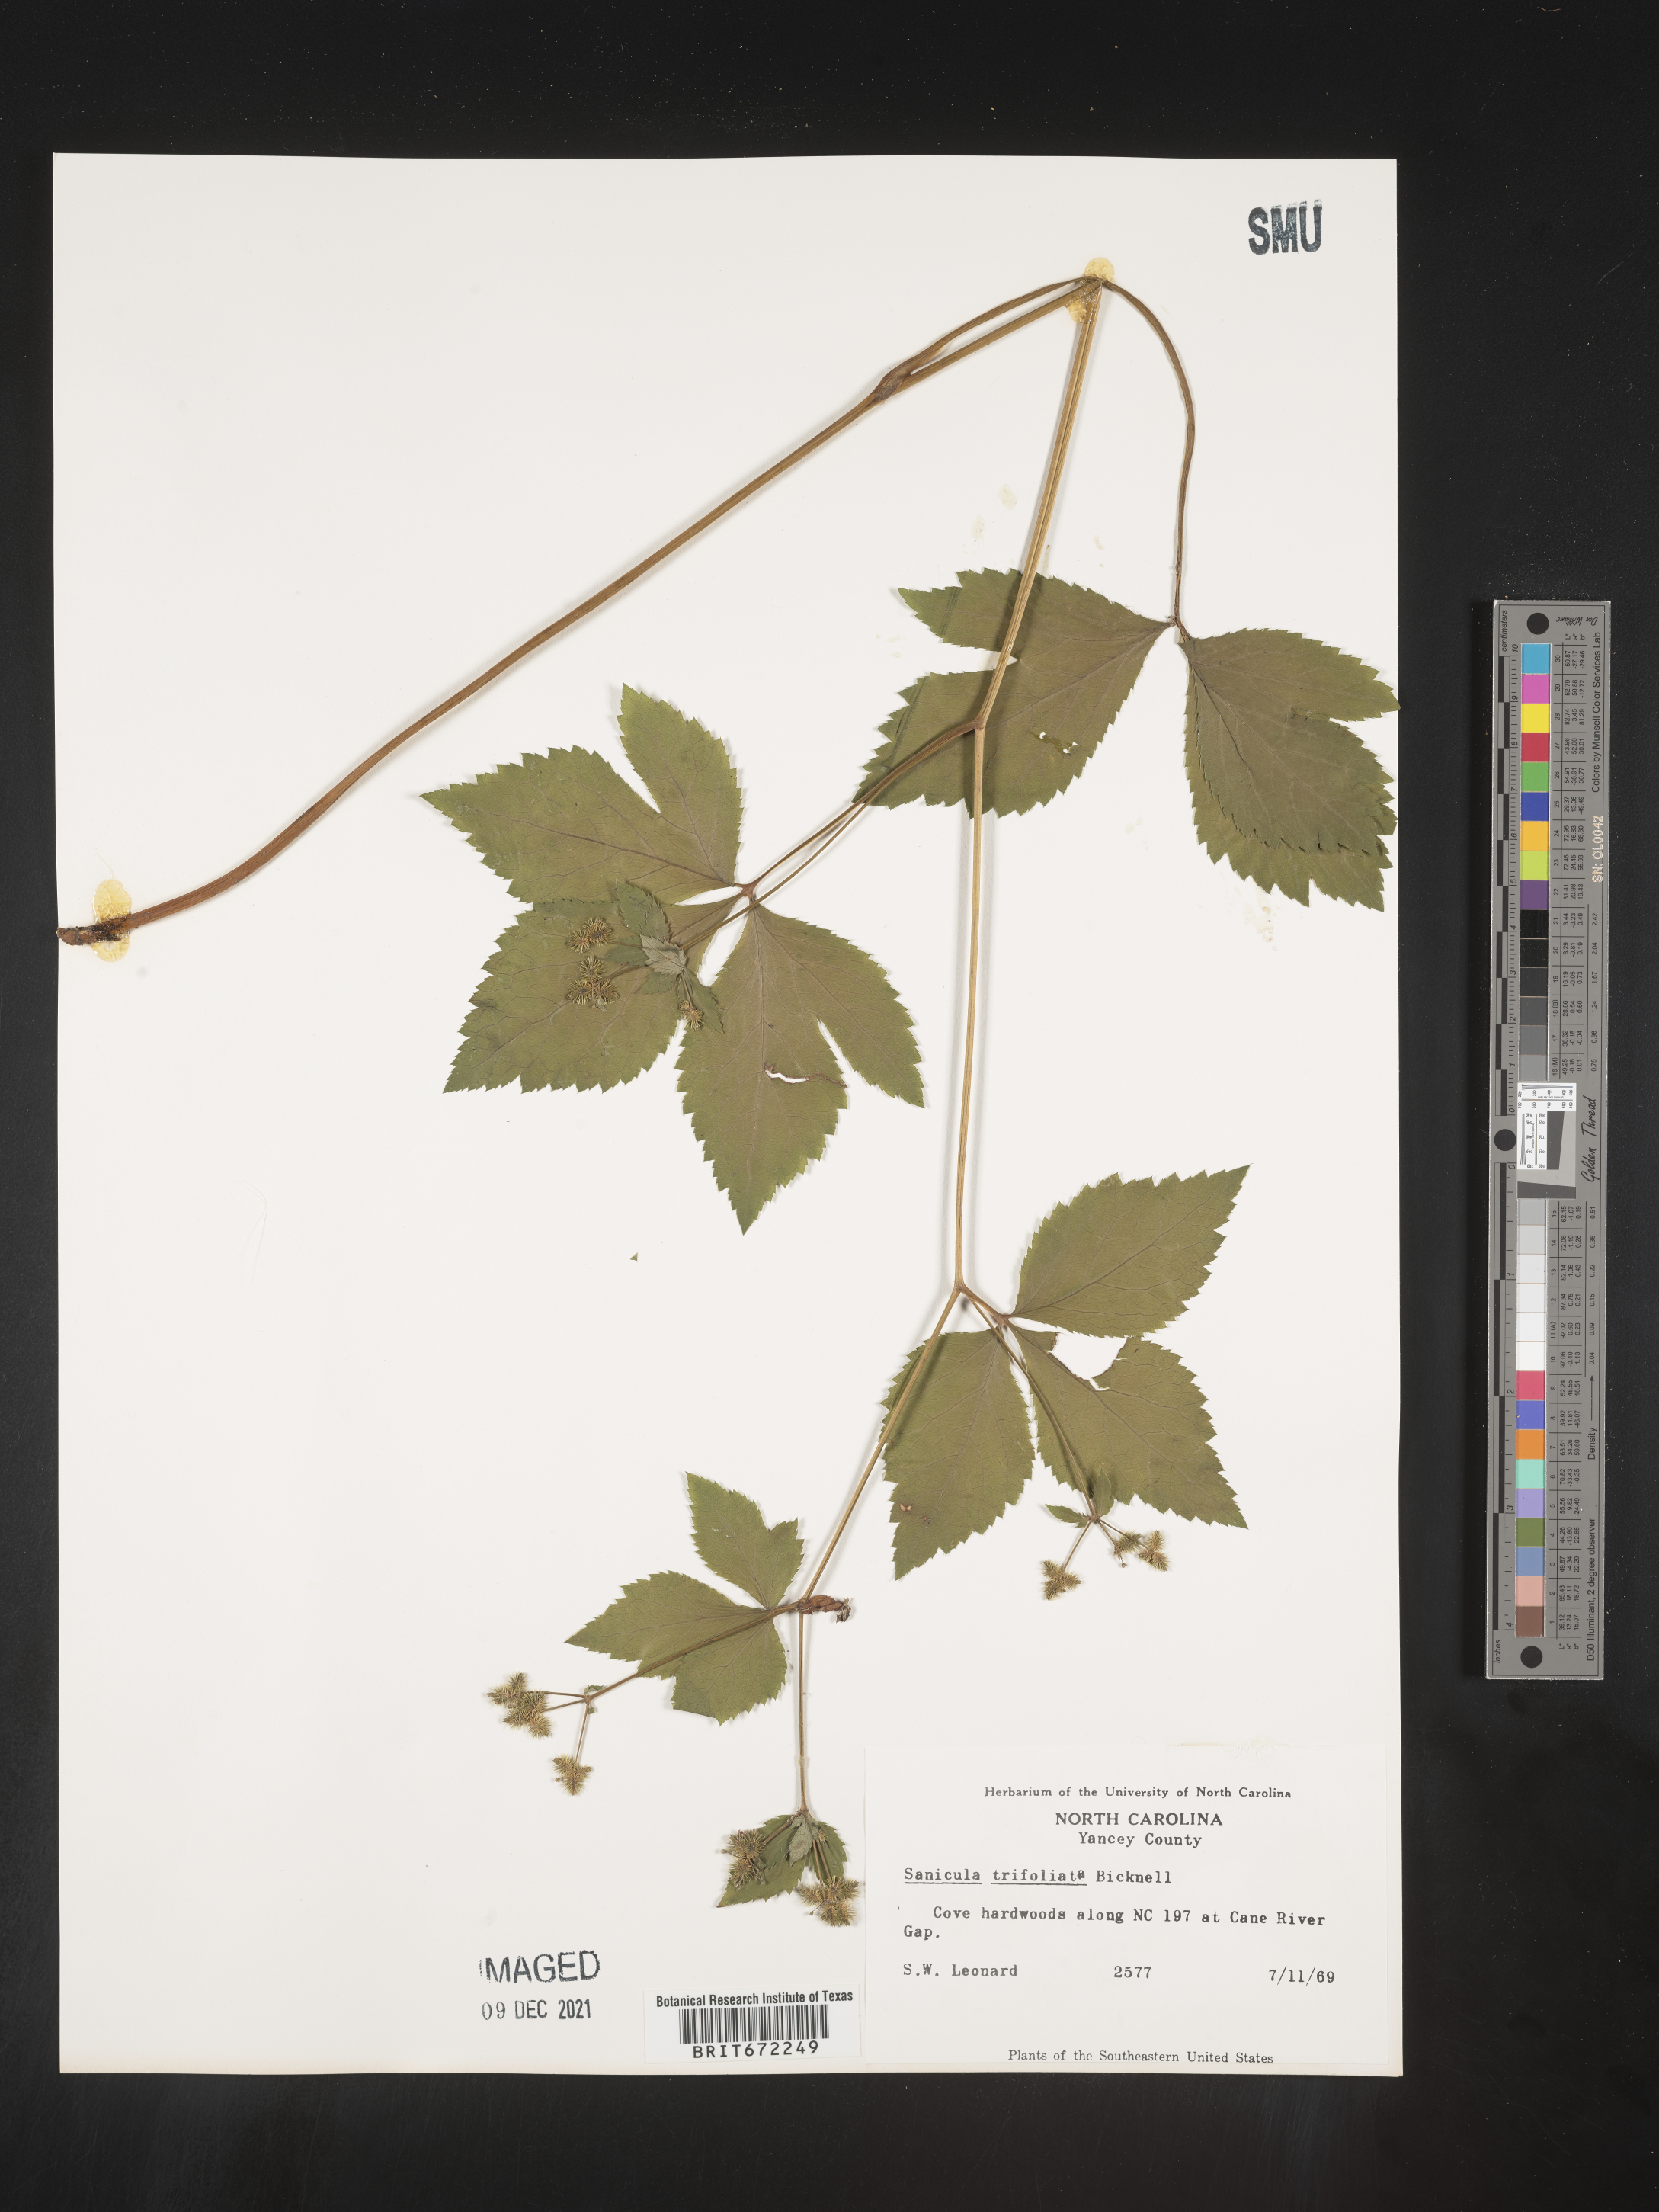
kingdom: Plantae
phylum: Tracheophyta
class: Magnoliopsida
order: Apiales
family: Apiaceae
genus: Sanicula
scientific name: Sanicula
